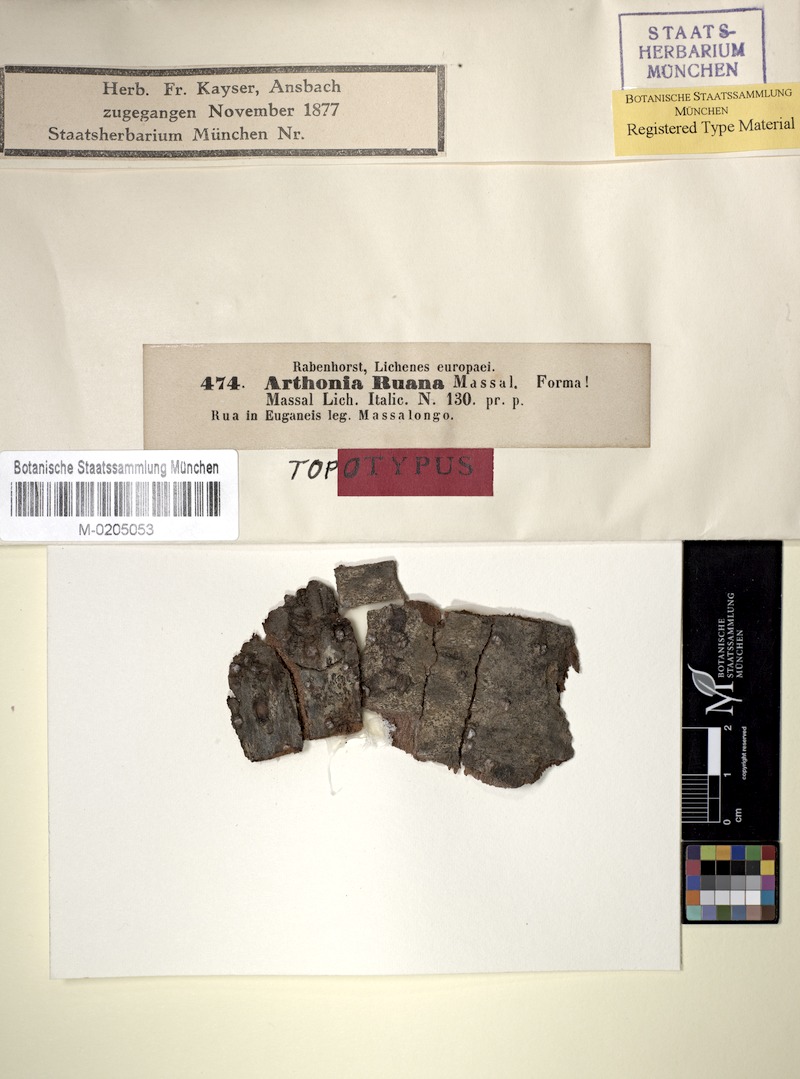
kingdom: Fungi
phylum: Ascomycota
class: Arthoniomycetes
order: Arthoniales
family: Arthoniaceae
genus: Arthothelium
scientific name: Arthothelium ruanum
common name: Jaguar-spot comma lichen
